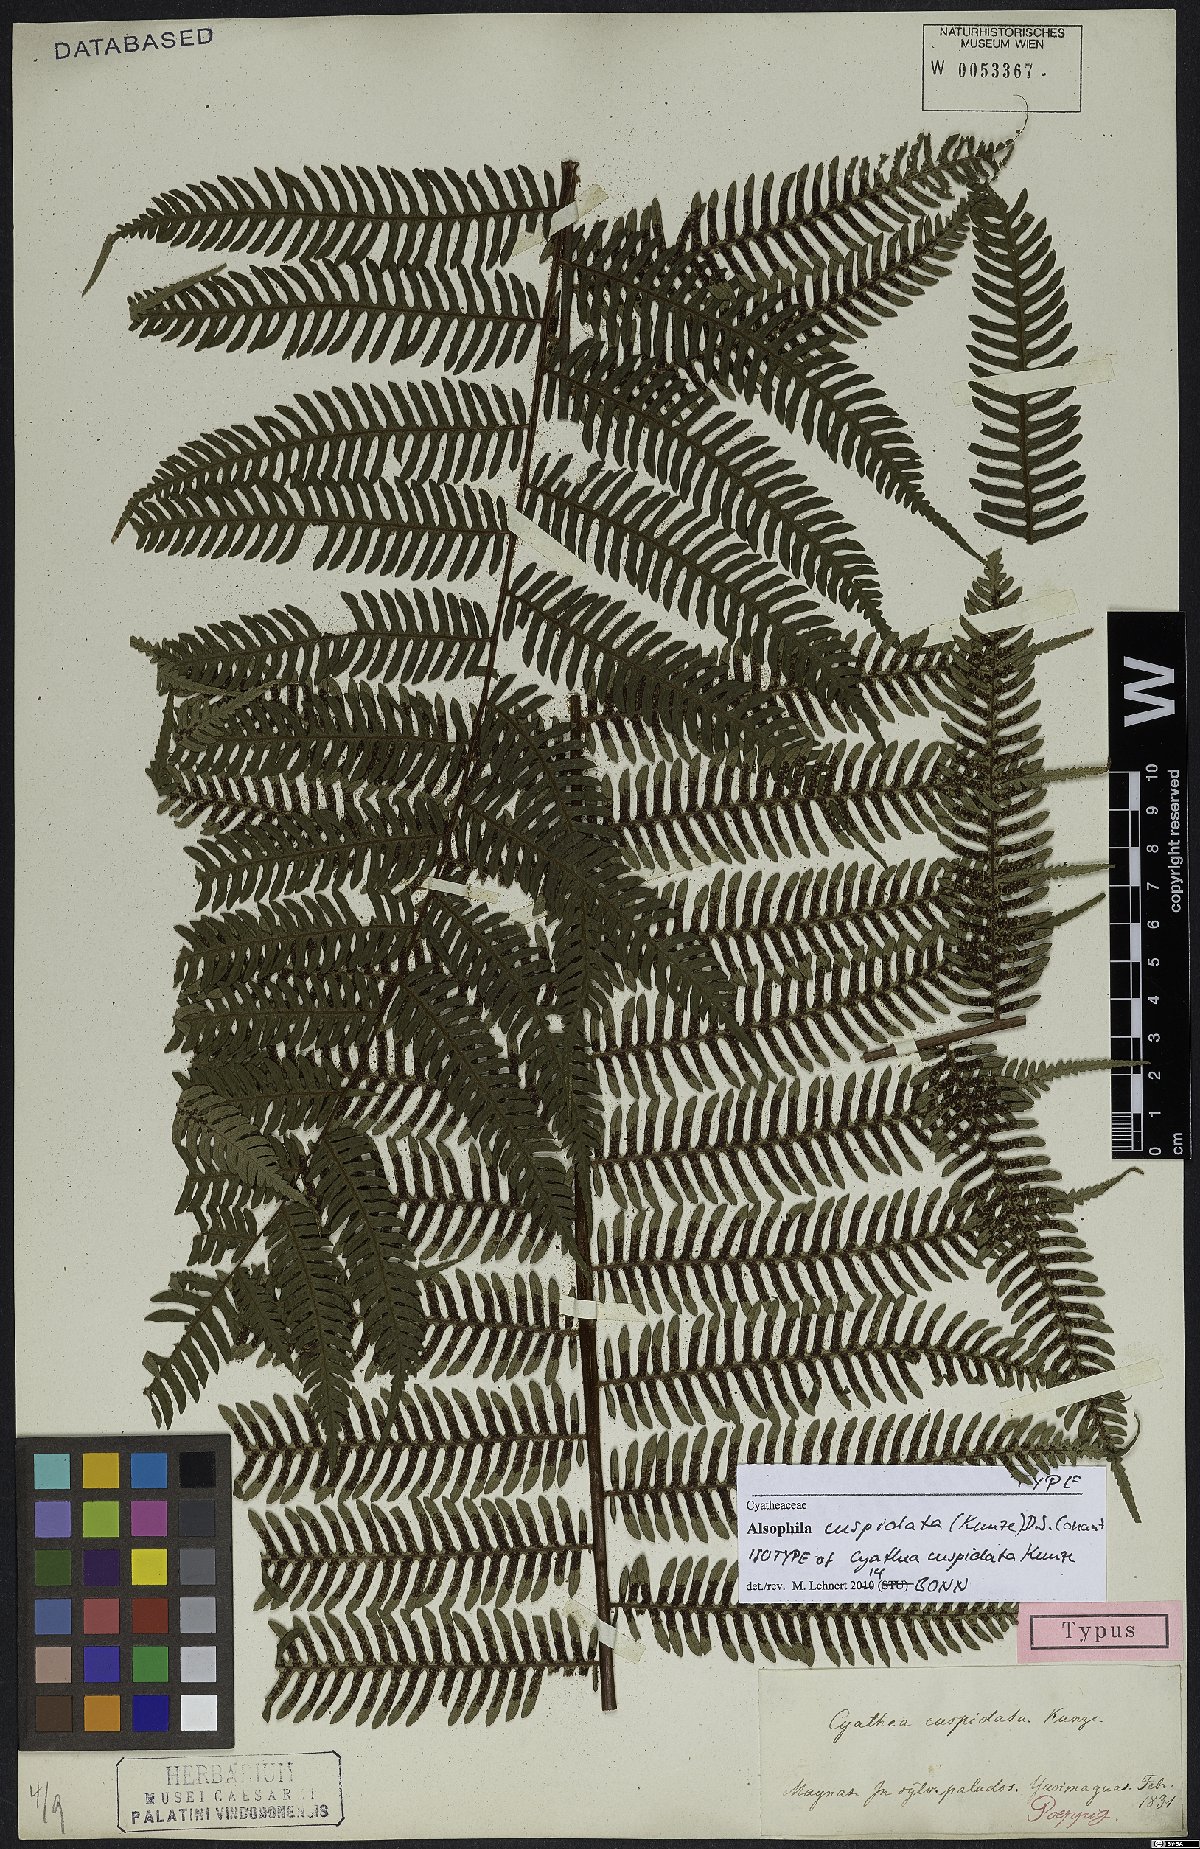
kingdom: Plantae
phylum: Tracheophyta
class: Polypodiopsida
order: Cyatheales
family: Cyatheaceae
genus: Alsophila
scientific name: Alsophila cuspidata
